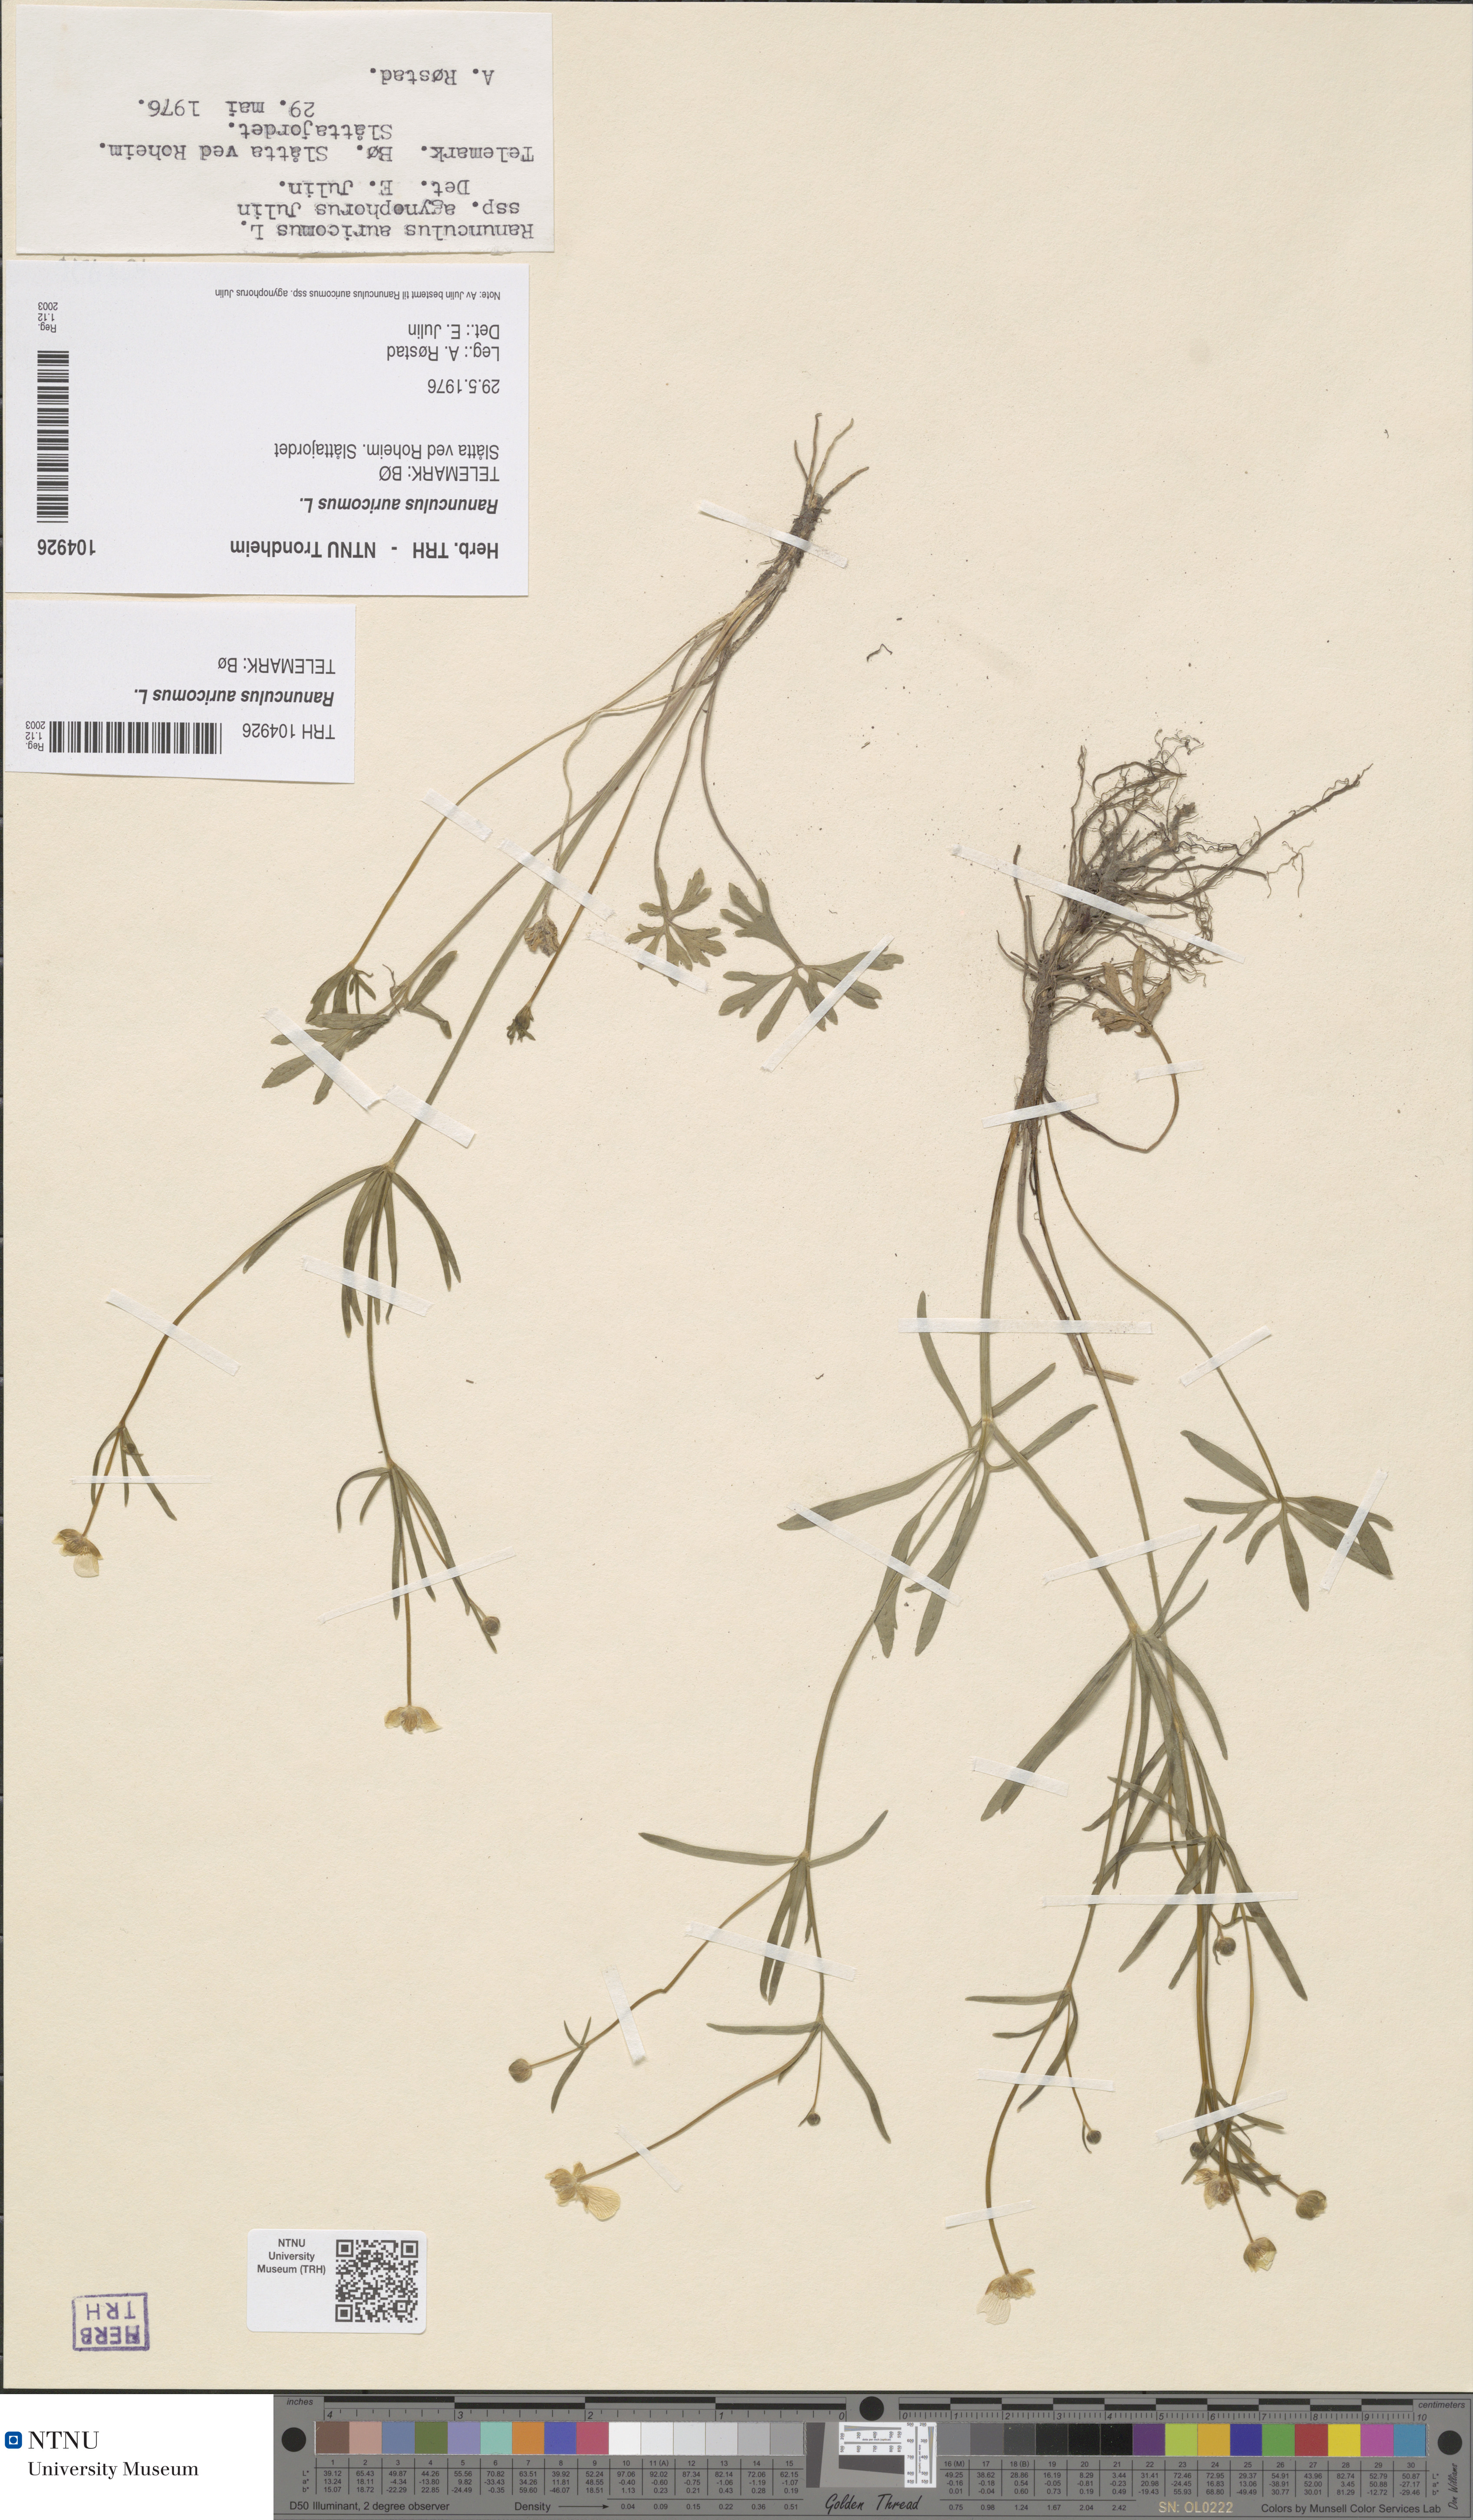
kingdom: Plantae
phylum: Tracheophyta
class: Magnoliopsida
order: Ranunculales
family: Ranunculaceae
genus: Ranunculus
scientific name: Ranunculus auricomus
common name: Goldilocks buttercup
